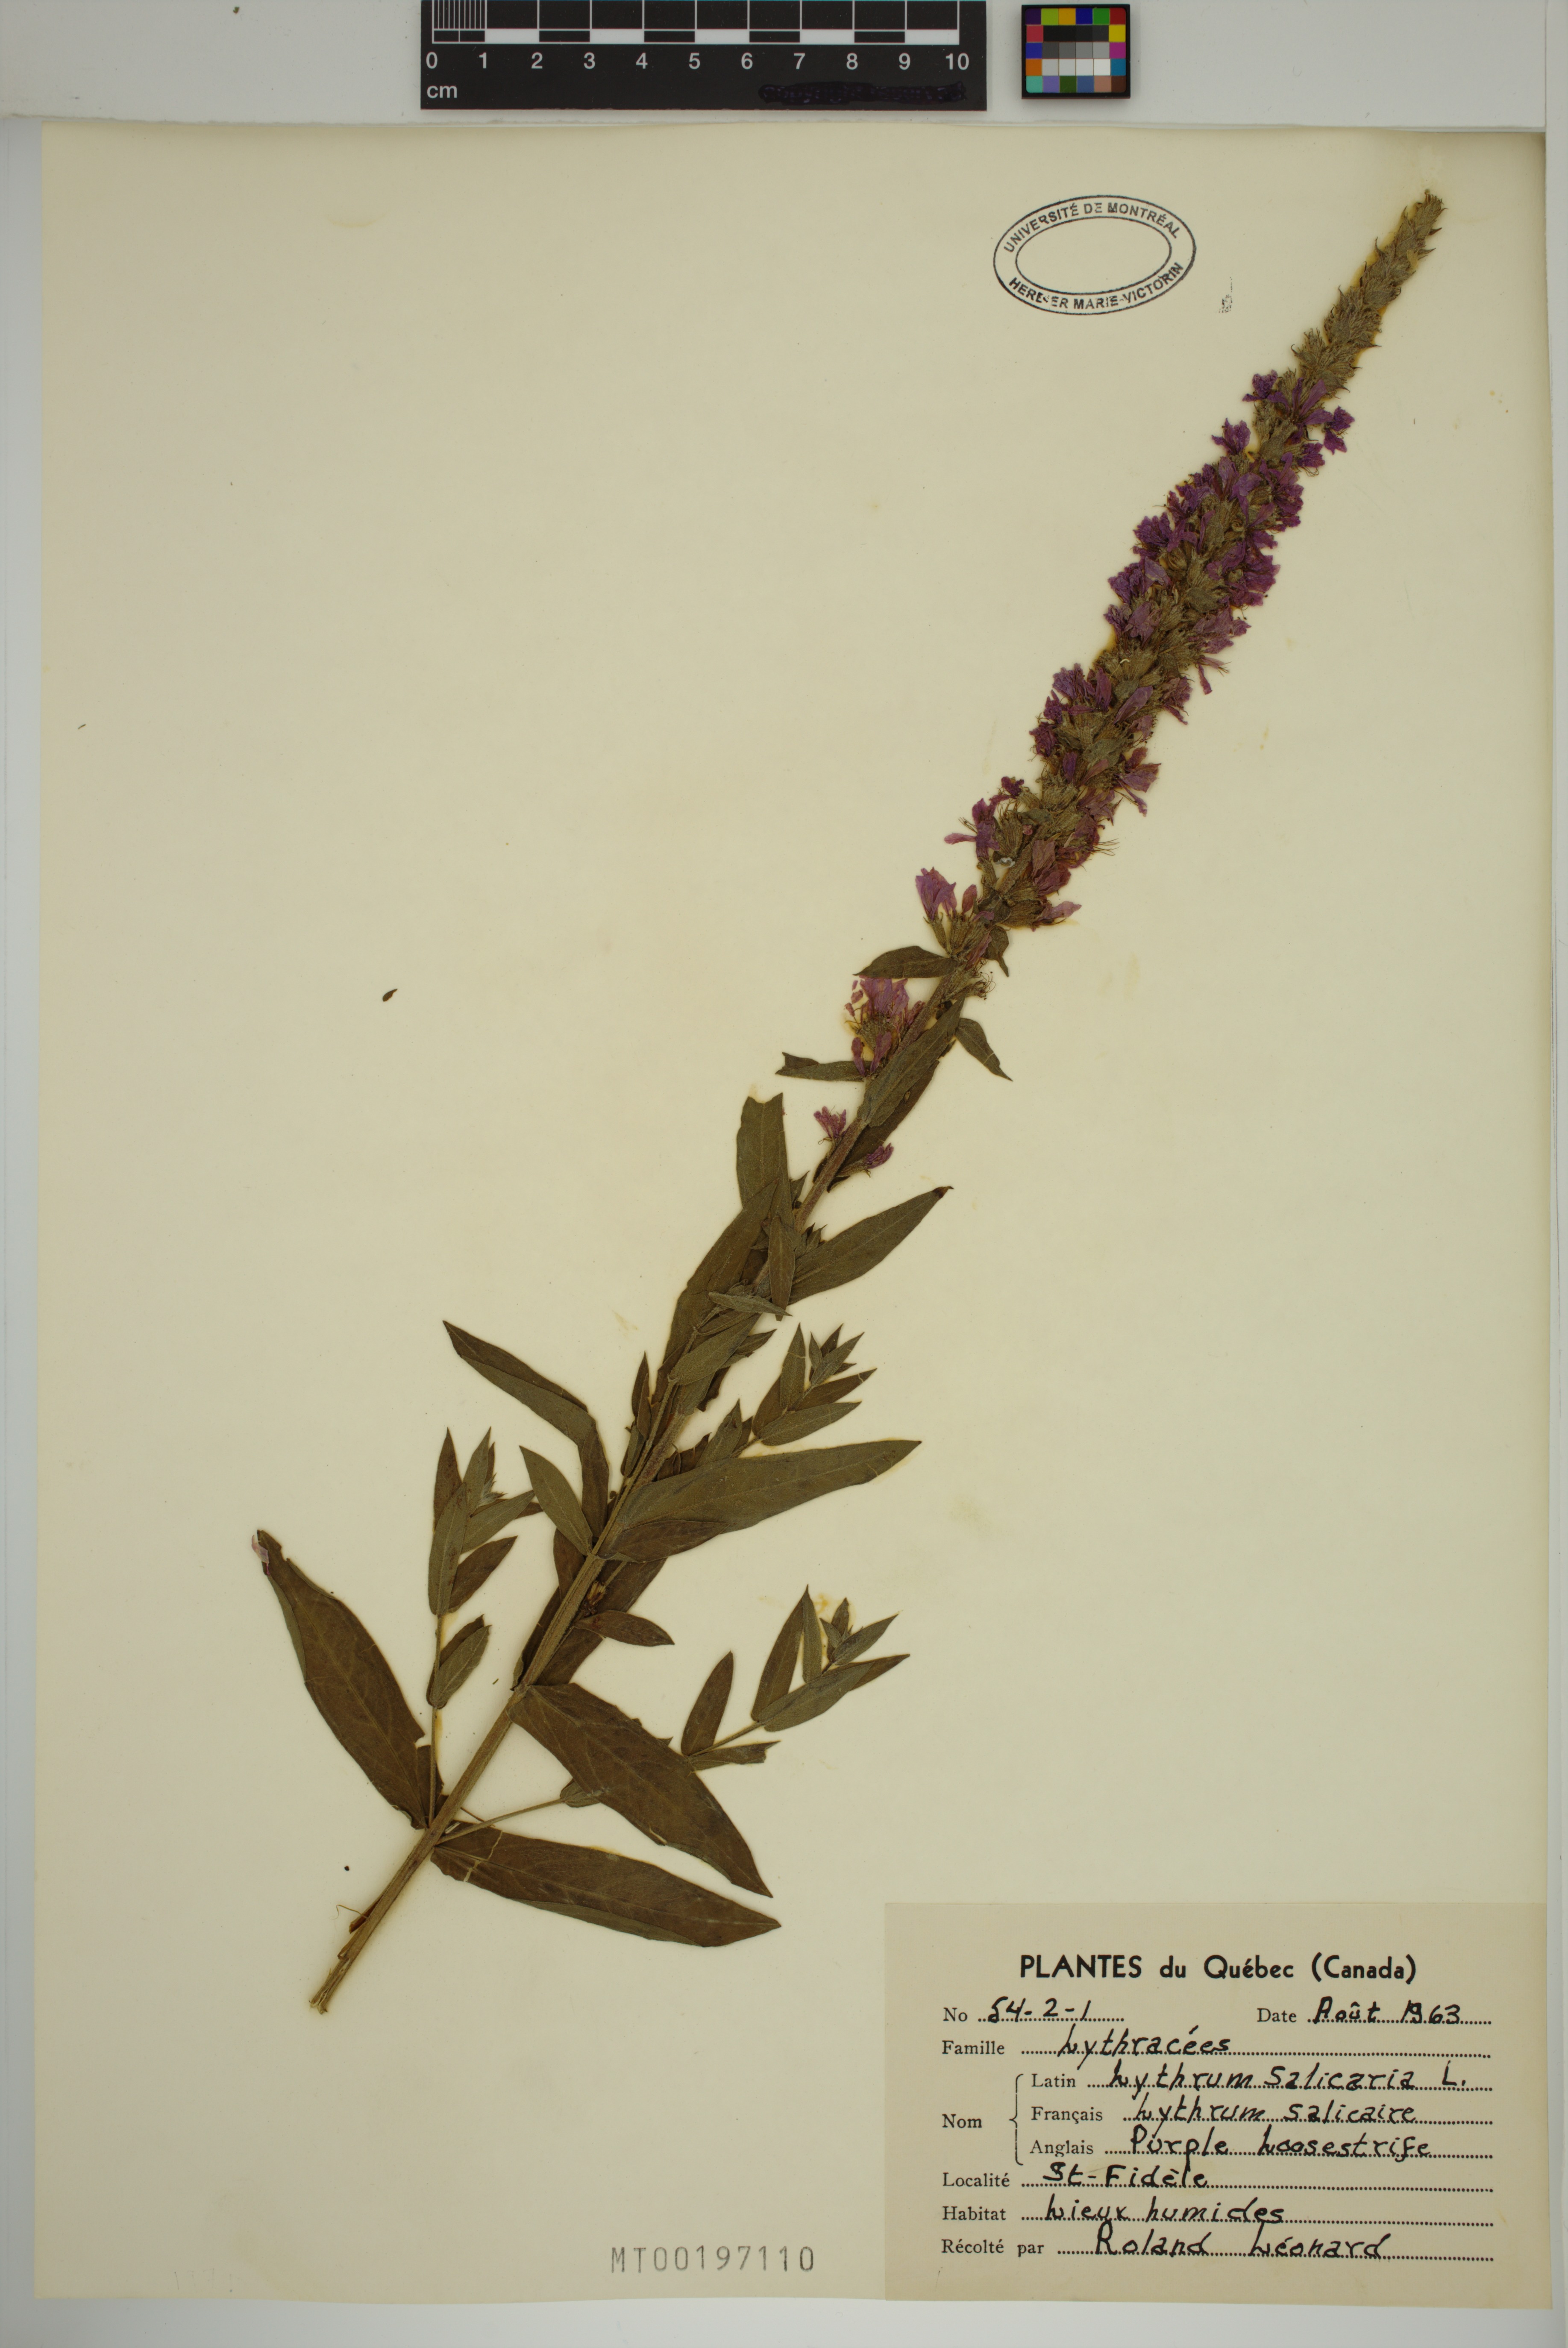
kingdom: Plantae
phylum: Tracheophyta
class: Magnoliopsida
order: Myrtales
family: Lythraceae
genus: Lythrum
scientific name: Lythrum salicaria
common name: Purple loosestrife
